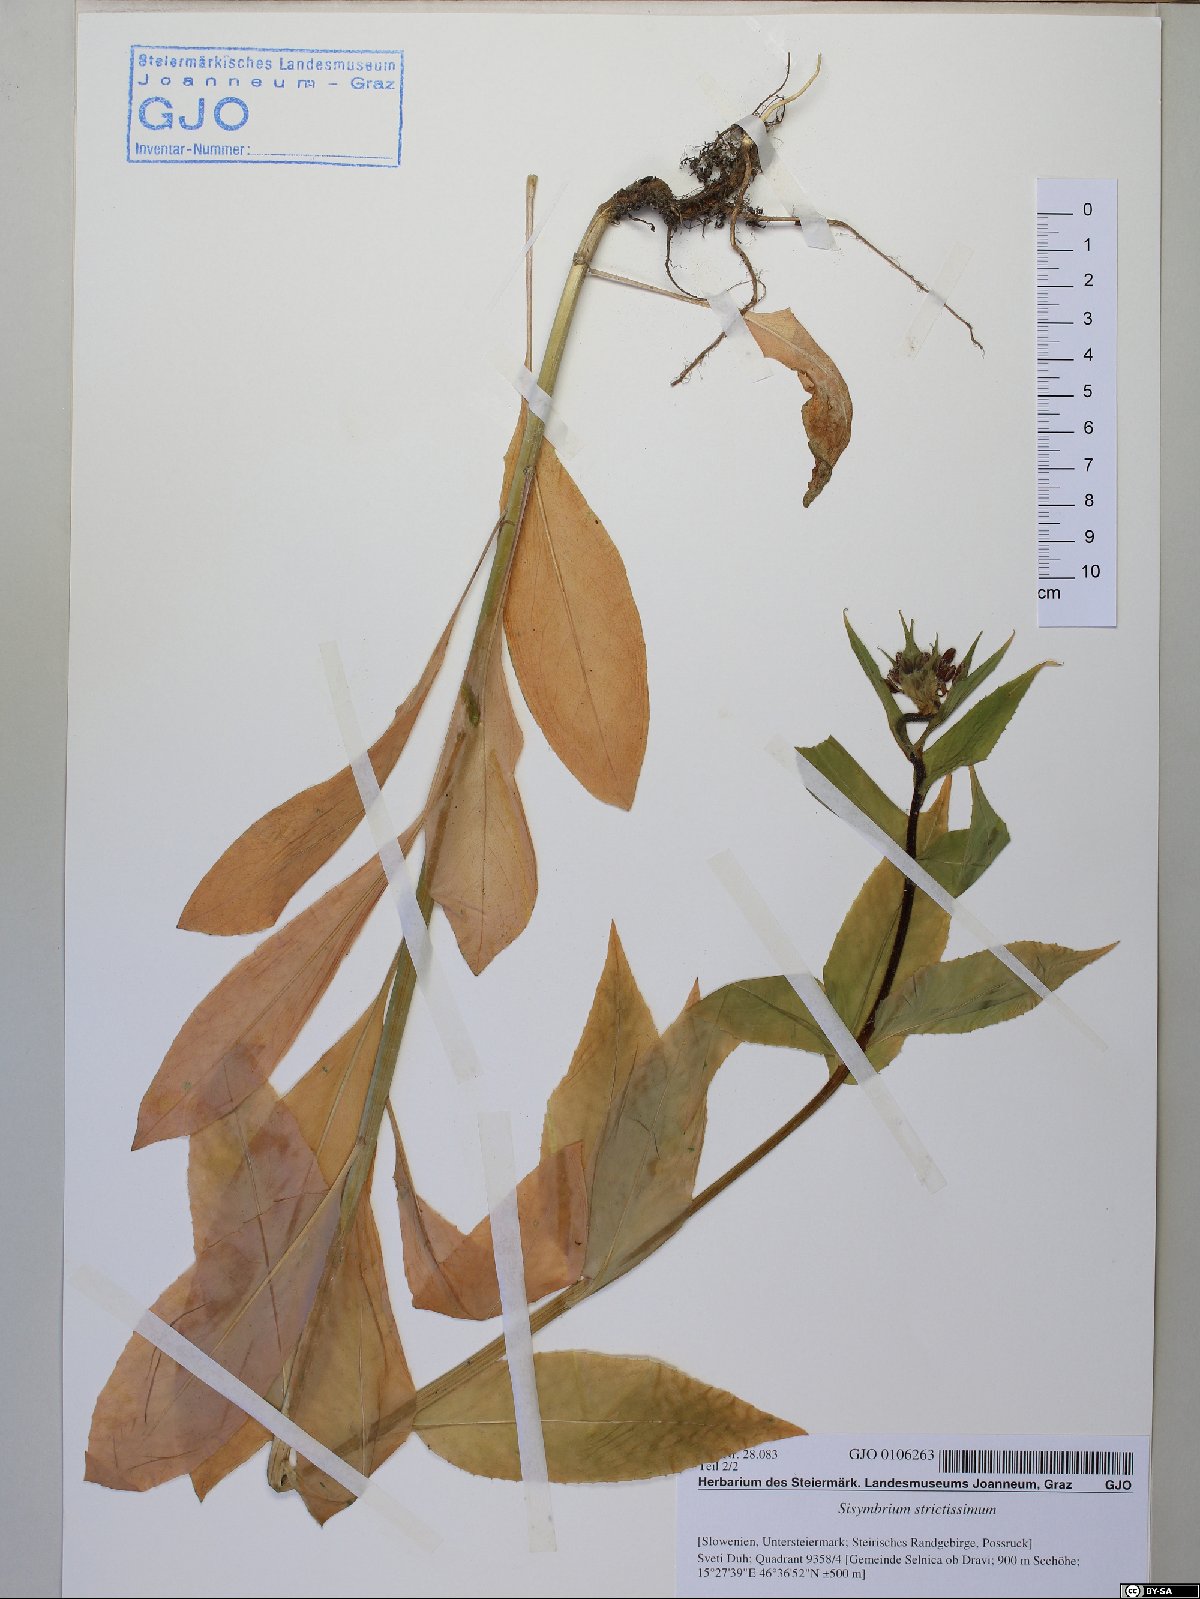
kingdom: Plantae
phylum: Tracheophyta
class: Magnoliopsida
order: Brassicales
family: Brassicaceae
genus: Sisymbrium
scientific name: Sisymbrium strictissimum
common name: Perennial rocket
